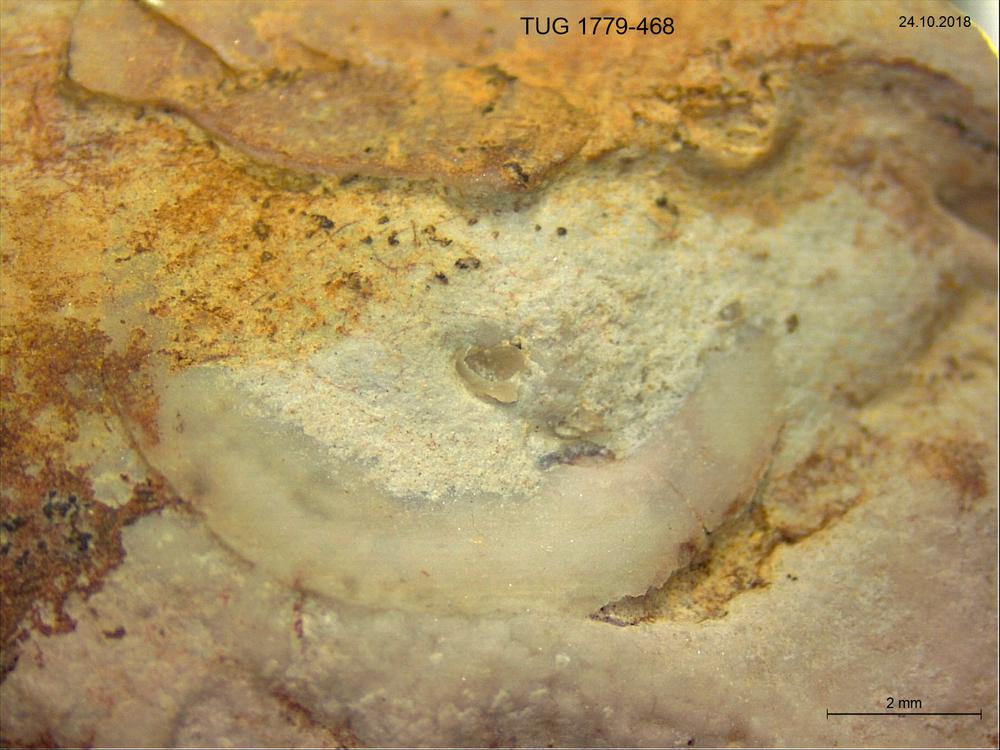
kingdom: Animalia
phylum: Brachiopoda
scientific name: Brachiopoda
